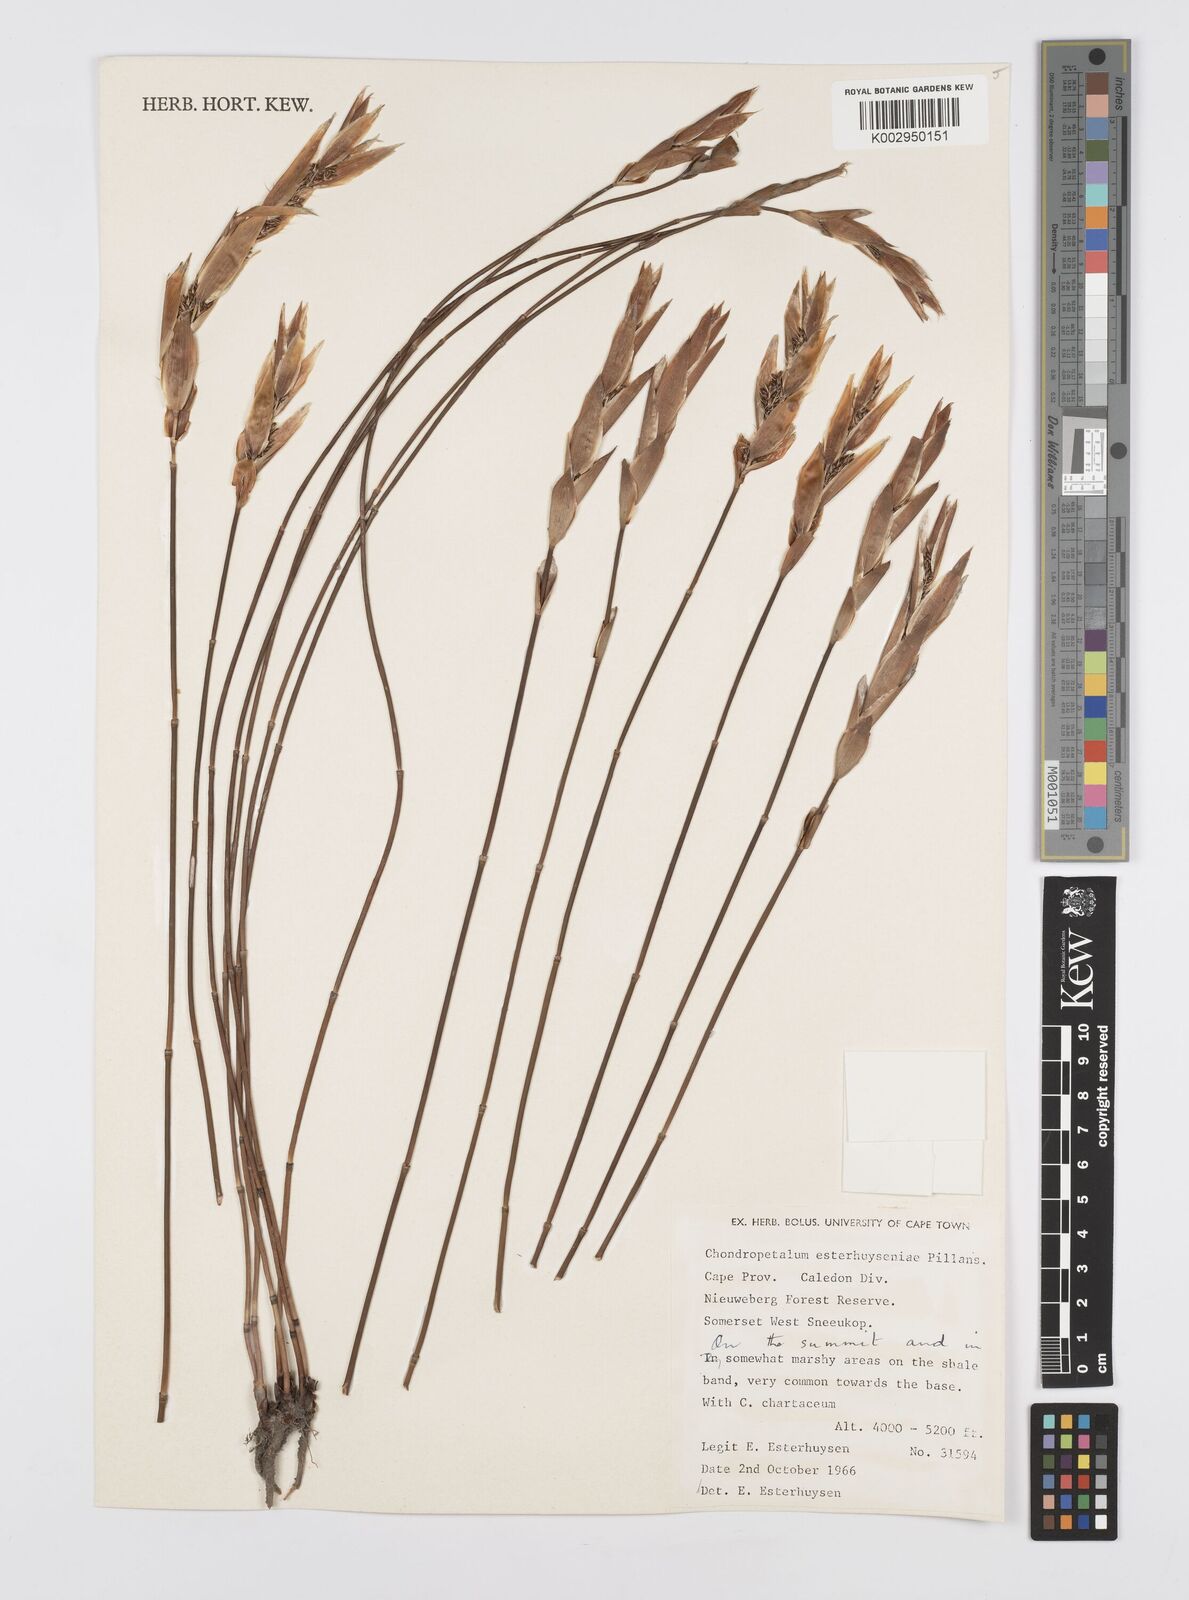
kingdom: Plantae
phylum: Tracheophyta
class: Liliopsida
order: Poales
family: Restionaceae
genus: Askidiosperma
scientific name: Askidiosperma esterhuyseniae
